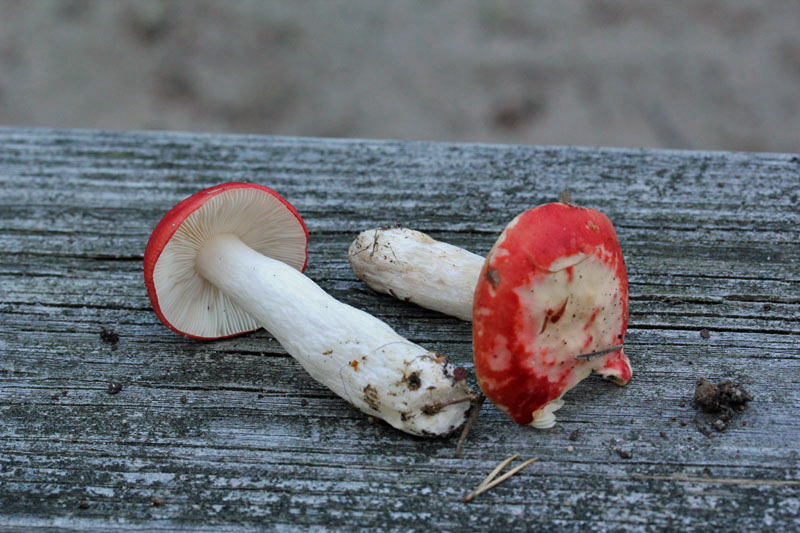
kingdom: Fungi
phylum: Basidiomycota
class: Agaricomycetes
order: Russulales
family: Russulaceae
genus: Russula
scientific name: Russula emetica
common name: stor gift-skørhat
